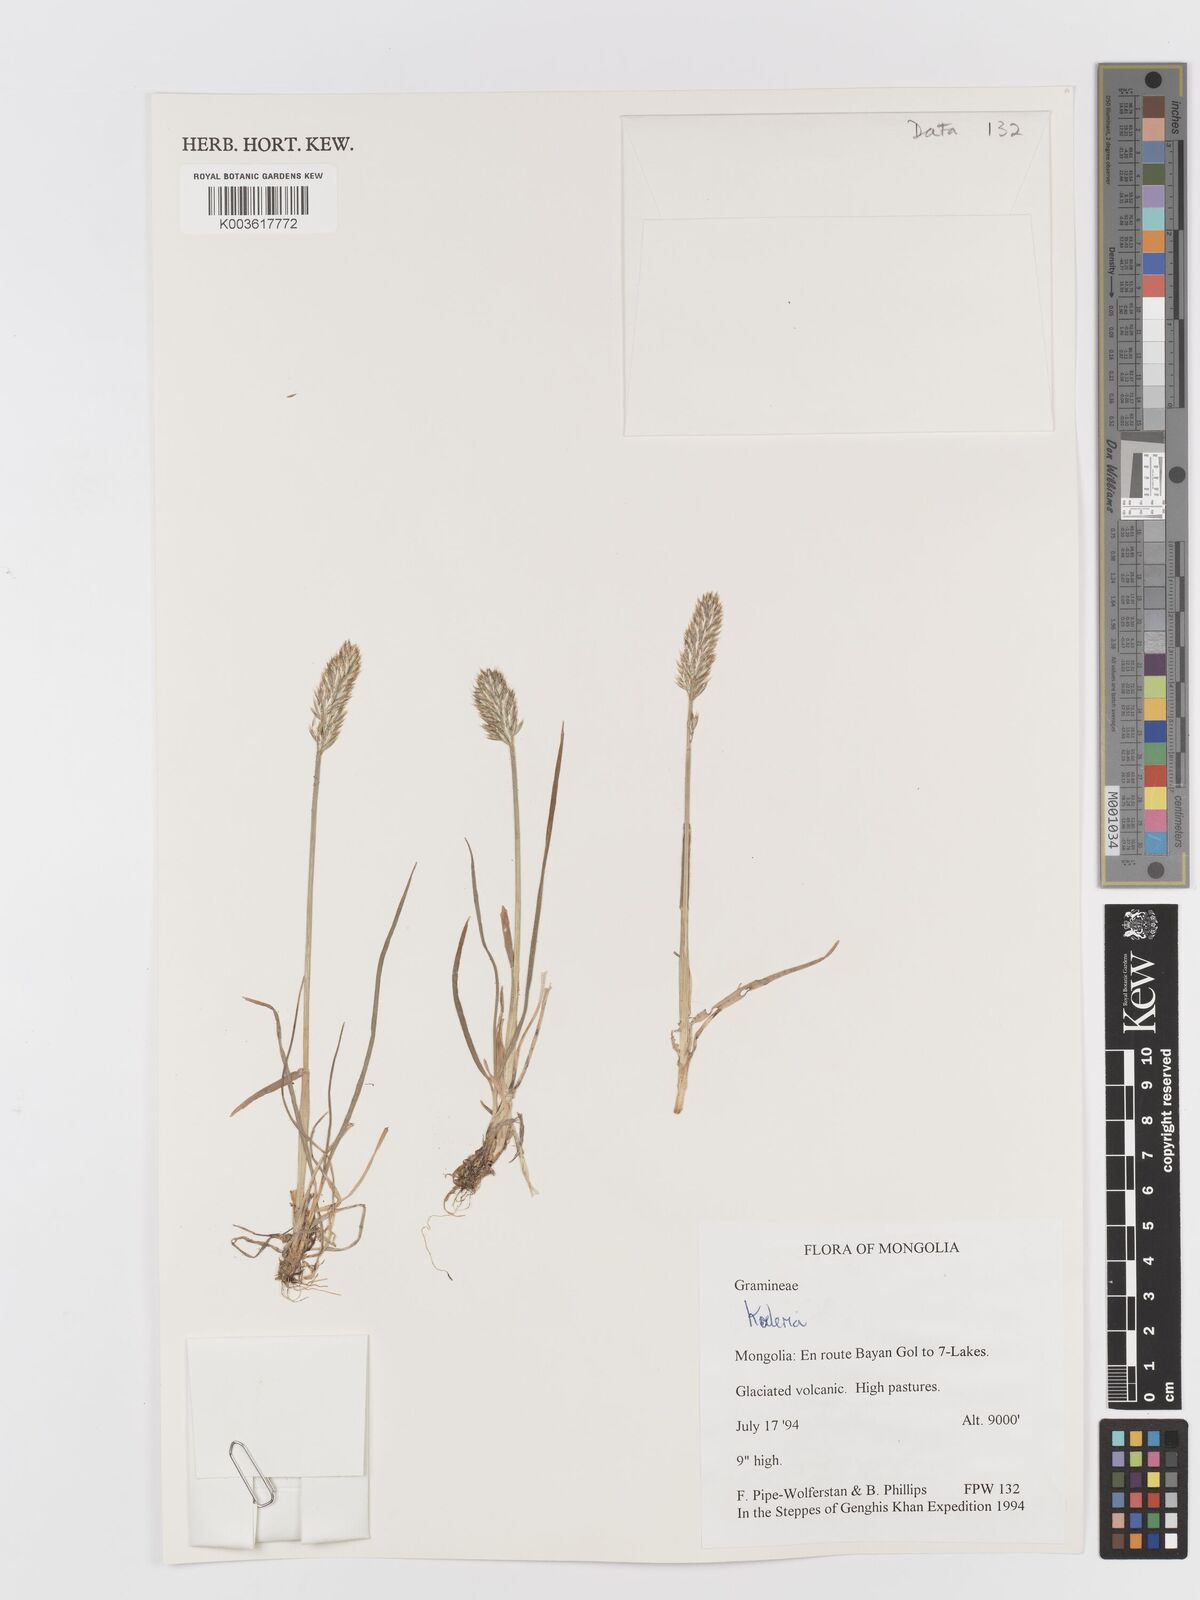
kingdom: Plantae
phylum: Tracheophyta
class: Liliopsida
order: Poales
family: Poaceae
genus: Koeleria
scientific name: Koeleria
